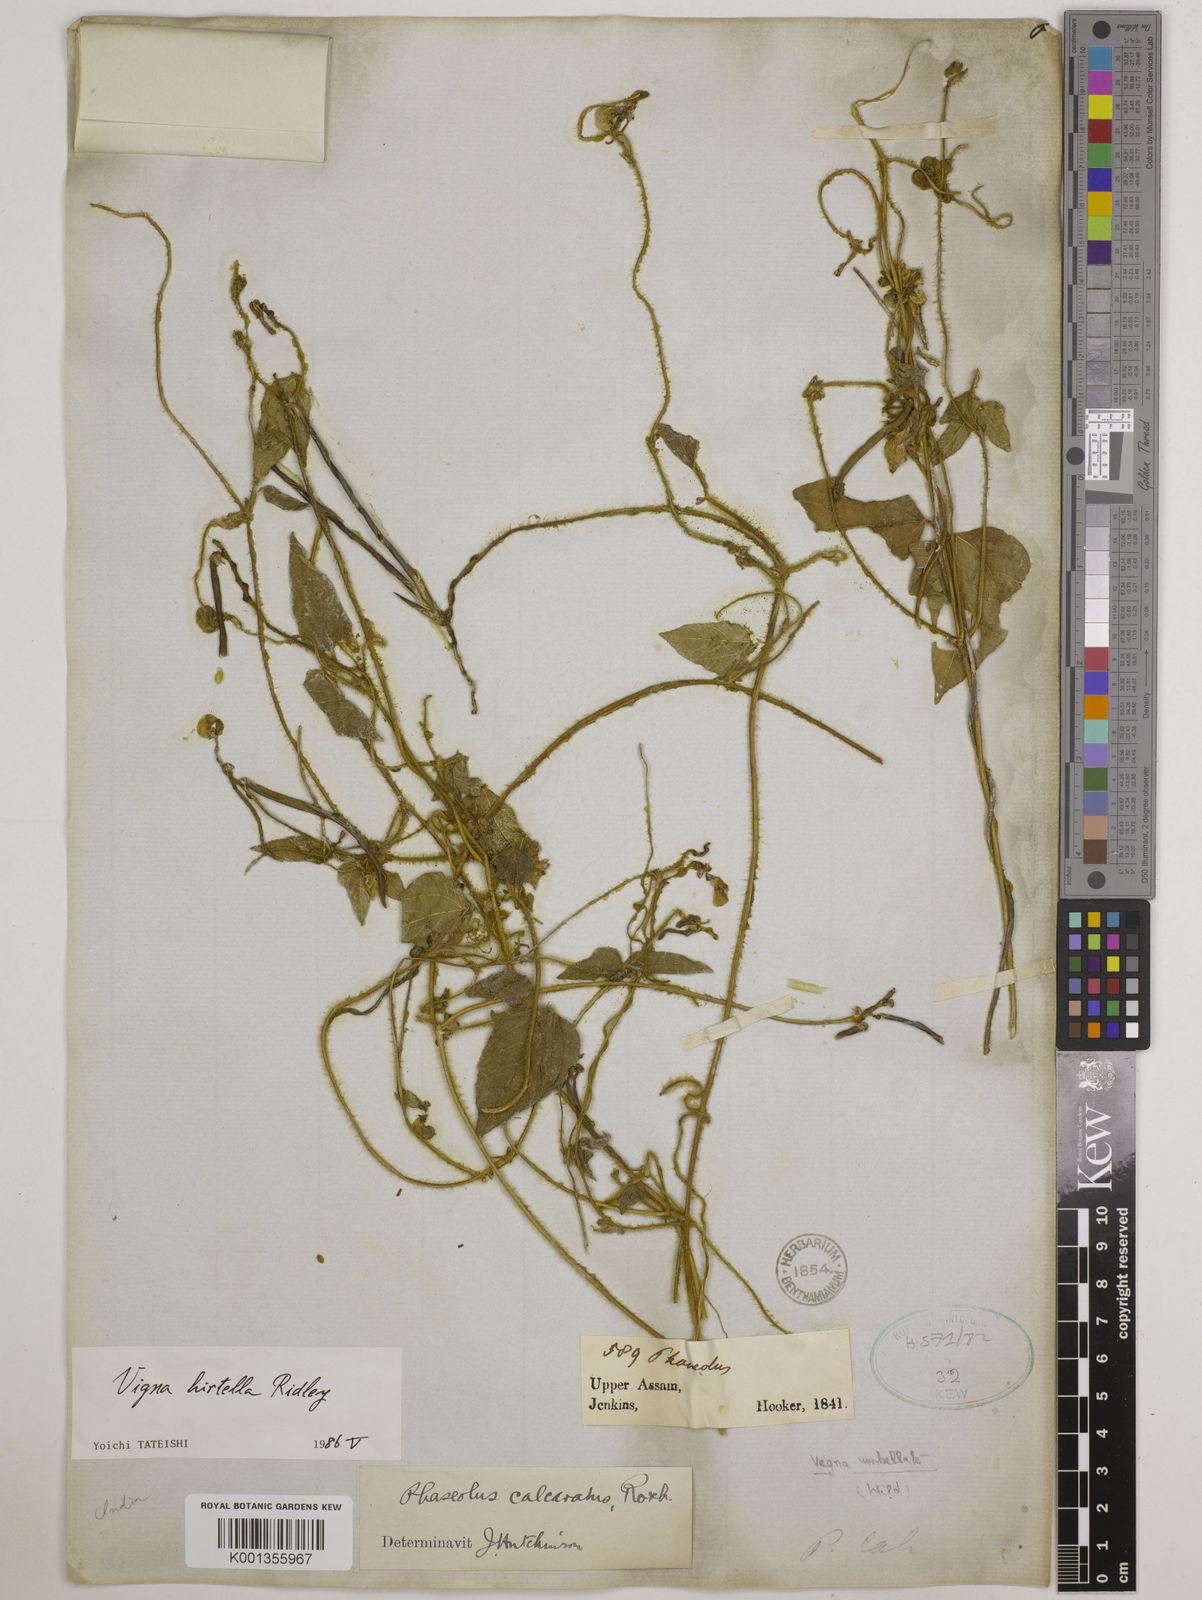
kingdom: Plantae
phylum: Tracheophyta
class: Magnoliopsida
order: Fabales
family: Fabaceae
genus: Vigna
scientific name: Vigna hirtella
